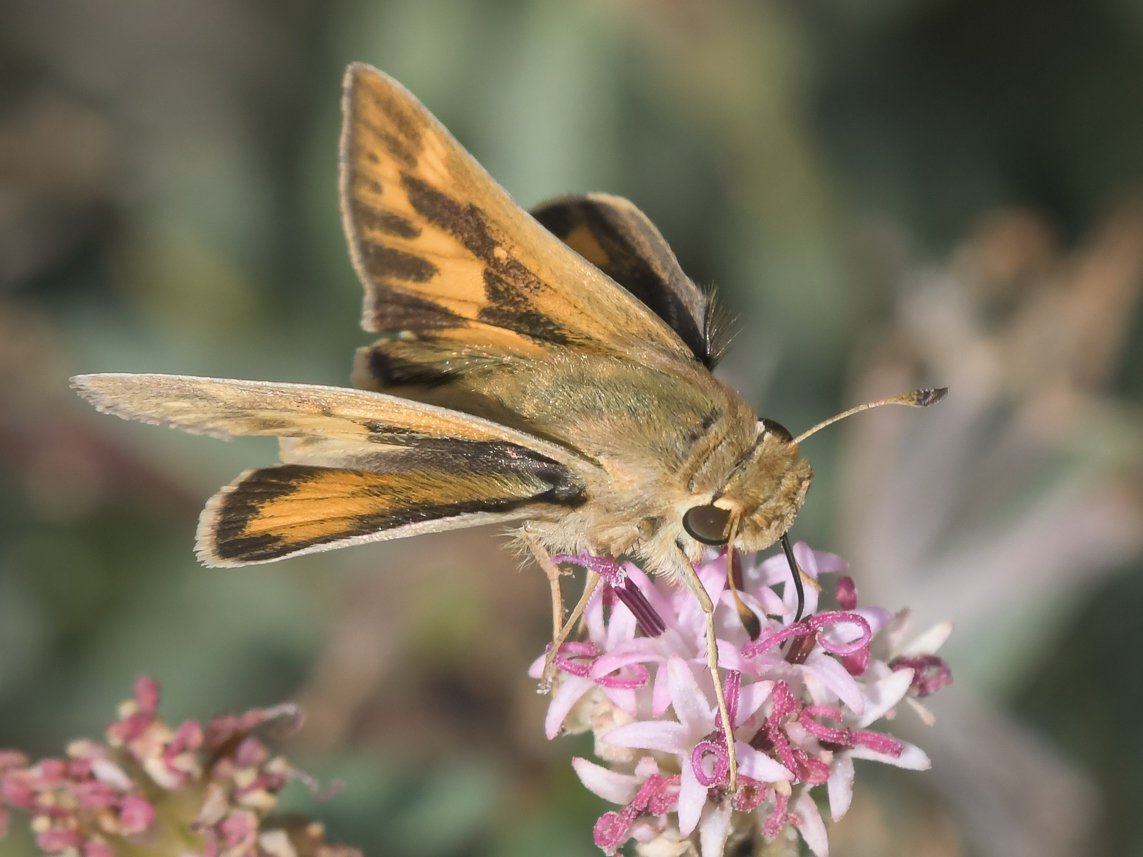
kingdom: Animalia
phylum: Arthropoda
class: Insecta
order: Lepidoptera
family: Hesperiidae
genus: Hylephila
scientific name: Hylephila phyleus
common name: Fiery Skipper
